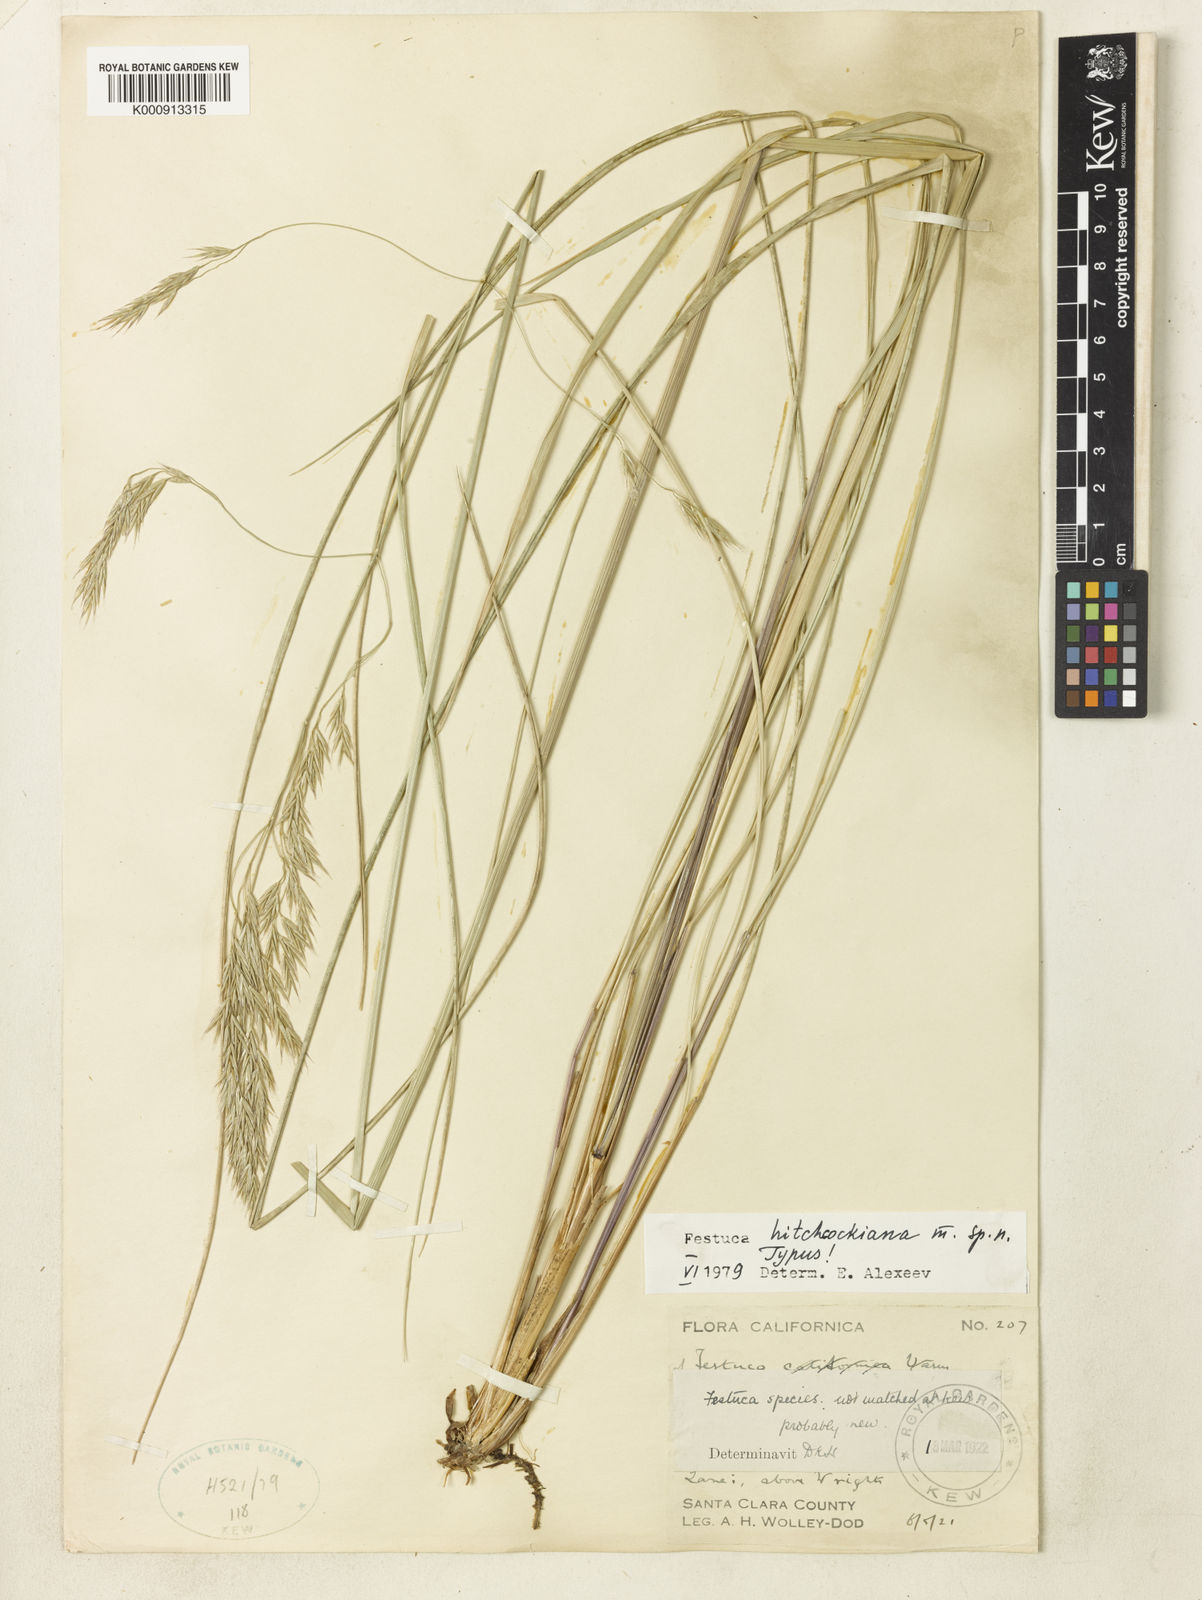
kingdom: Plantae
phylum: Tracheophyta
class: Liliopsida
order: Poales
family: Poaceae
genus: Festuca
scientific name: Festuca californica
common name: California fescue
